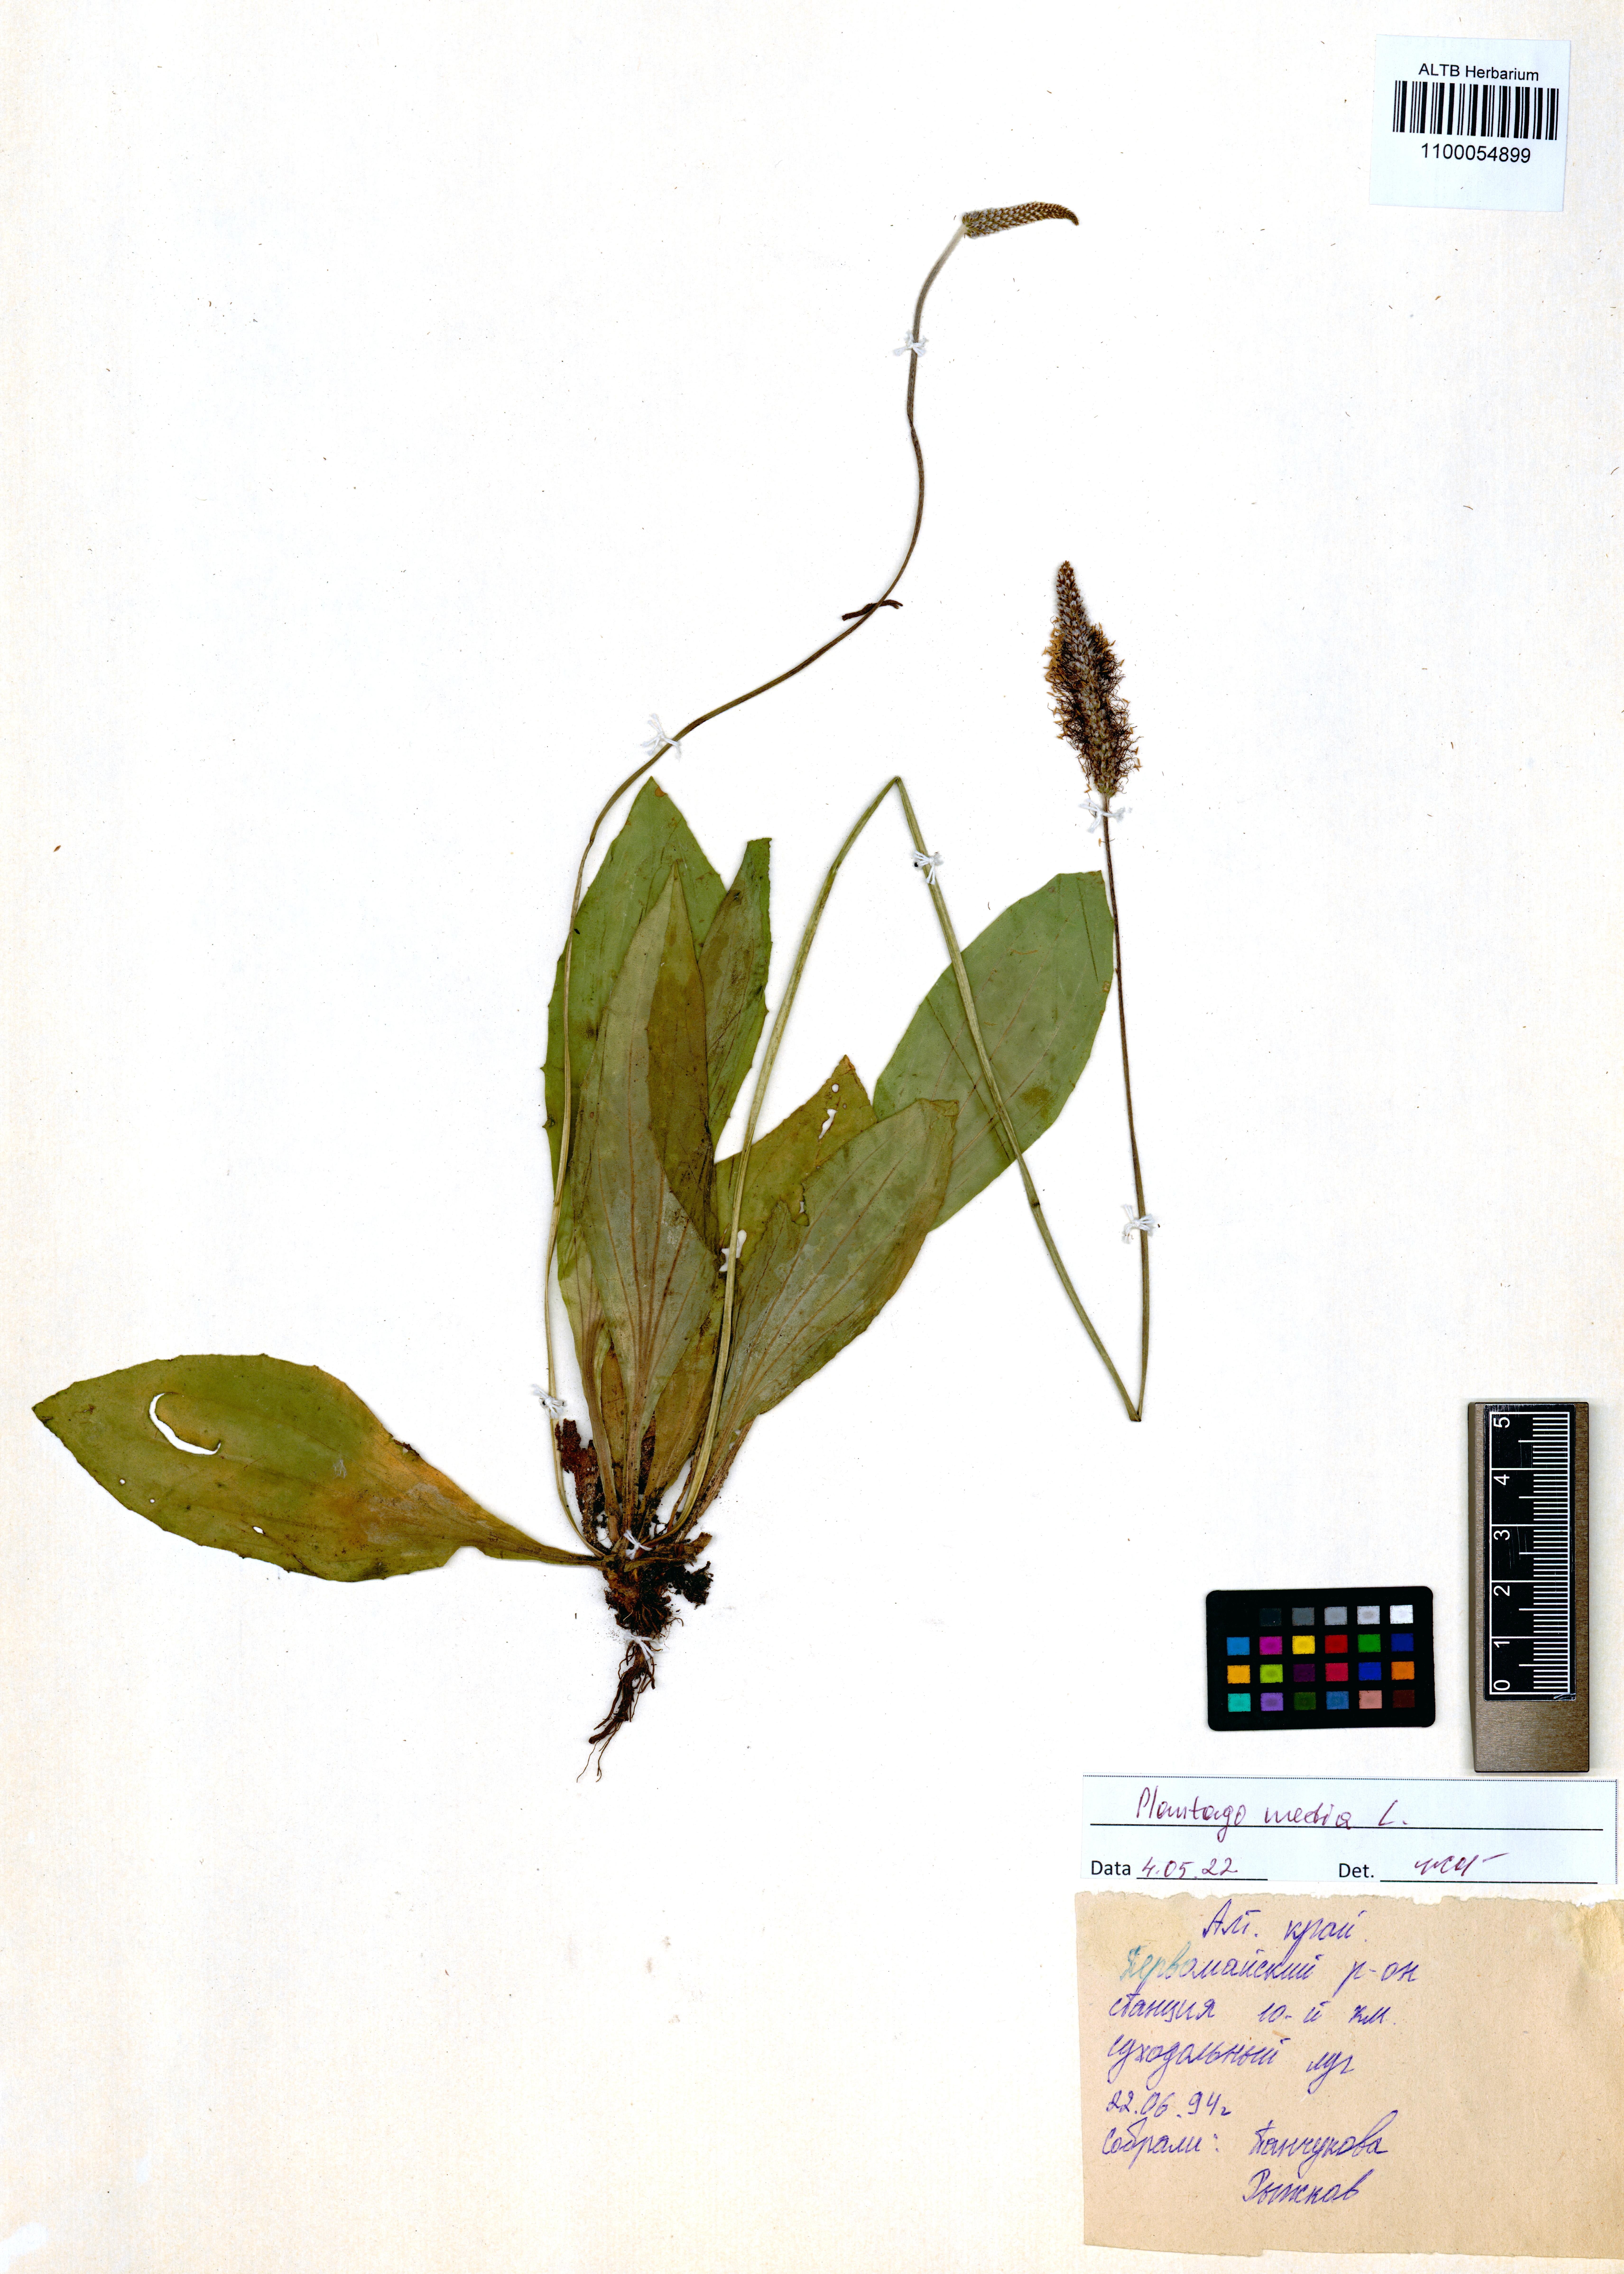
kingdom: Plantae
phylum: Tracheophyta
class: Magnoliopsida
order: Lamiales
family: Plantaginaceae
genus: Plantago
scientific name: Plantago media
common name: Hoary plantain
